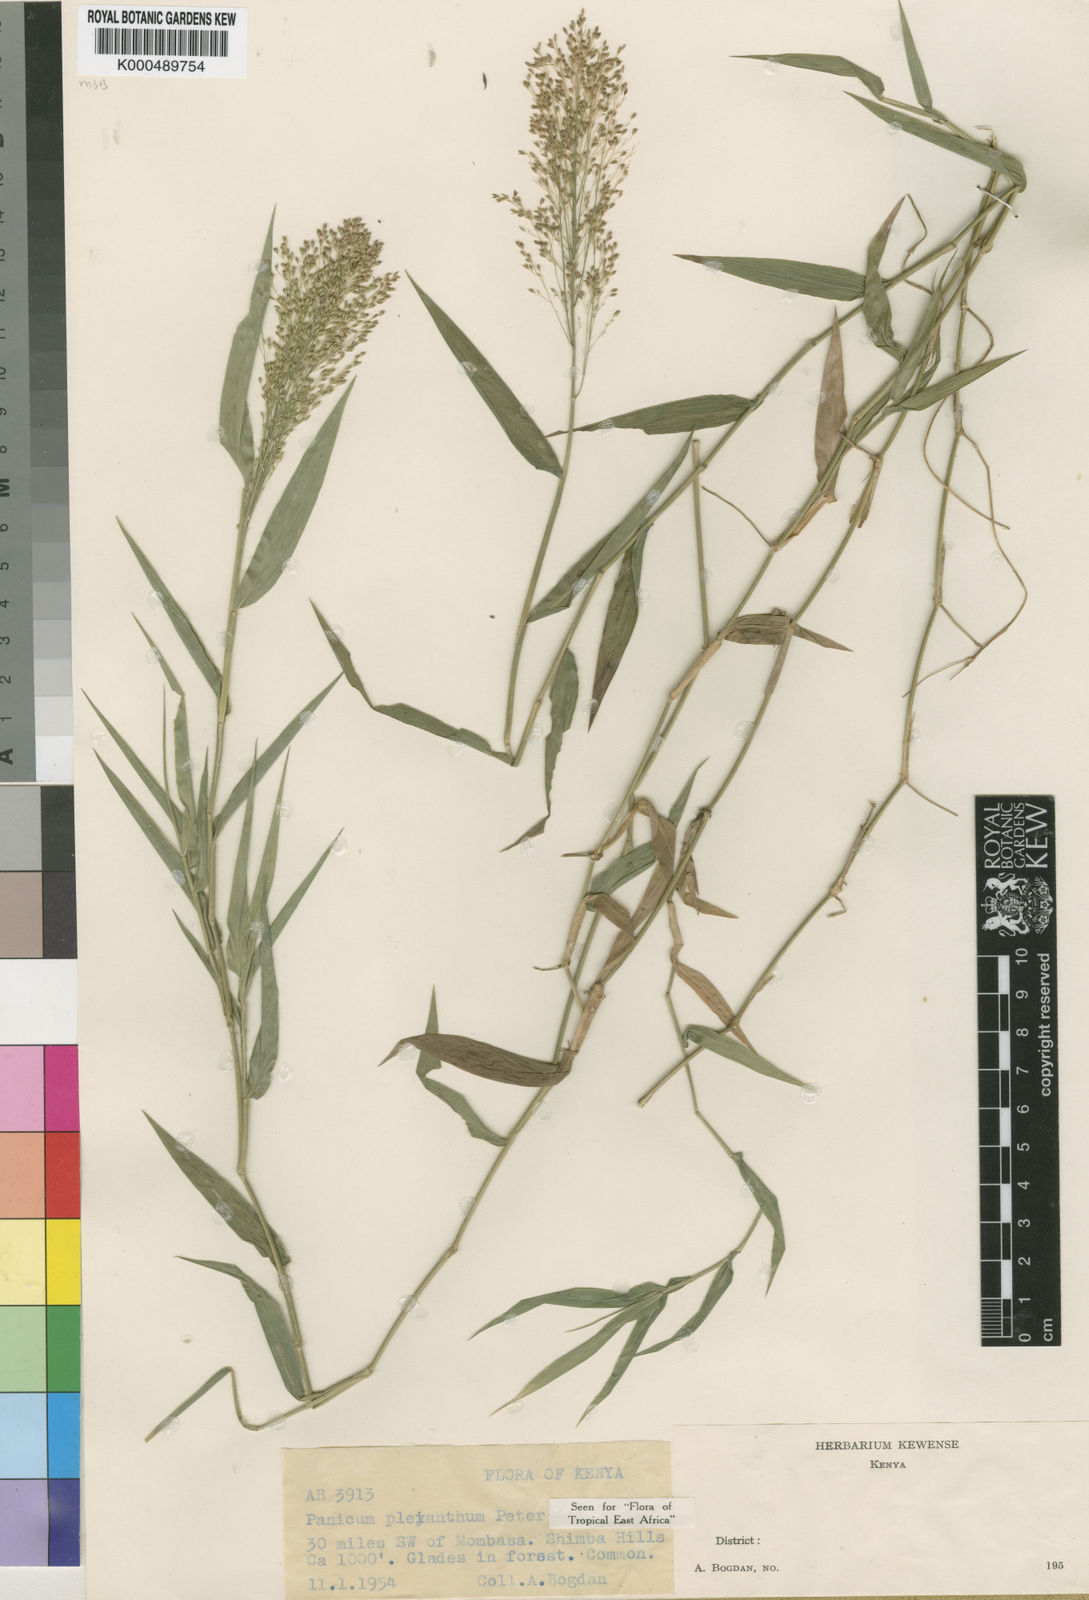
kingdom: Plantae
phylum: Tracheophyta
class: Liliopsida
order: Poales
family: Poaceae
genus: Panicum
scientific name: Panicum pleianthum
